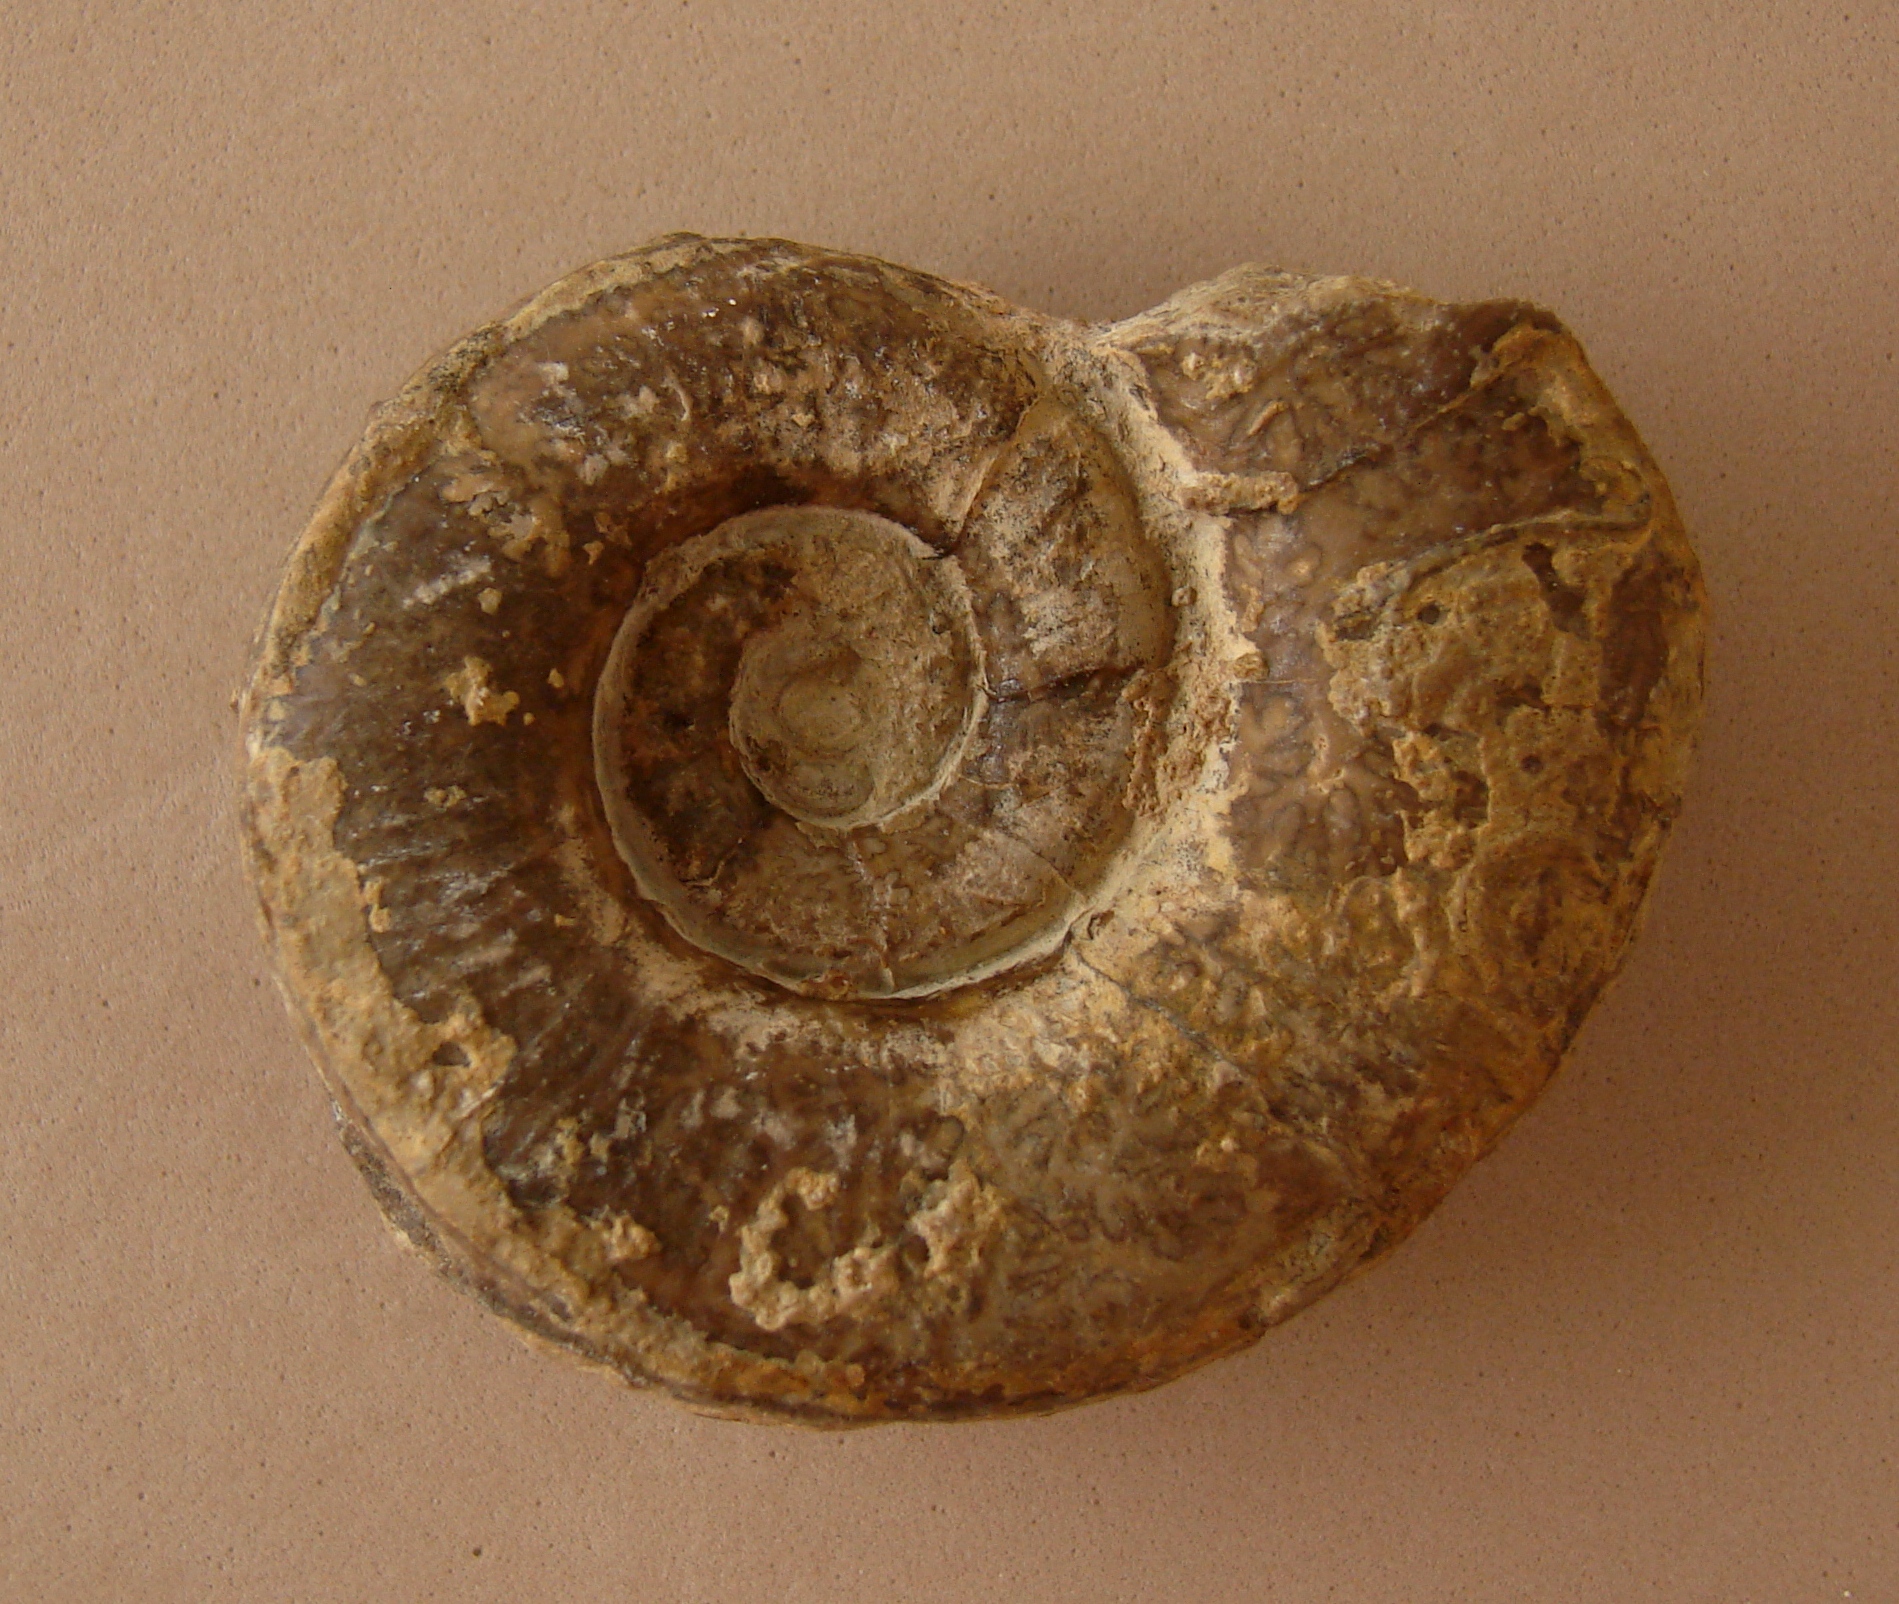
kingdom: Animalia
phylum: Mollusca
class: Cephalopoda
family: Lytoceratidae
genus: Lytoceras
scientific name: Lytoceras fimbriatum
